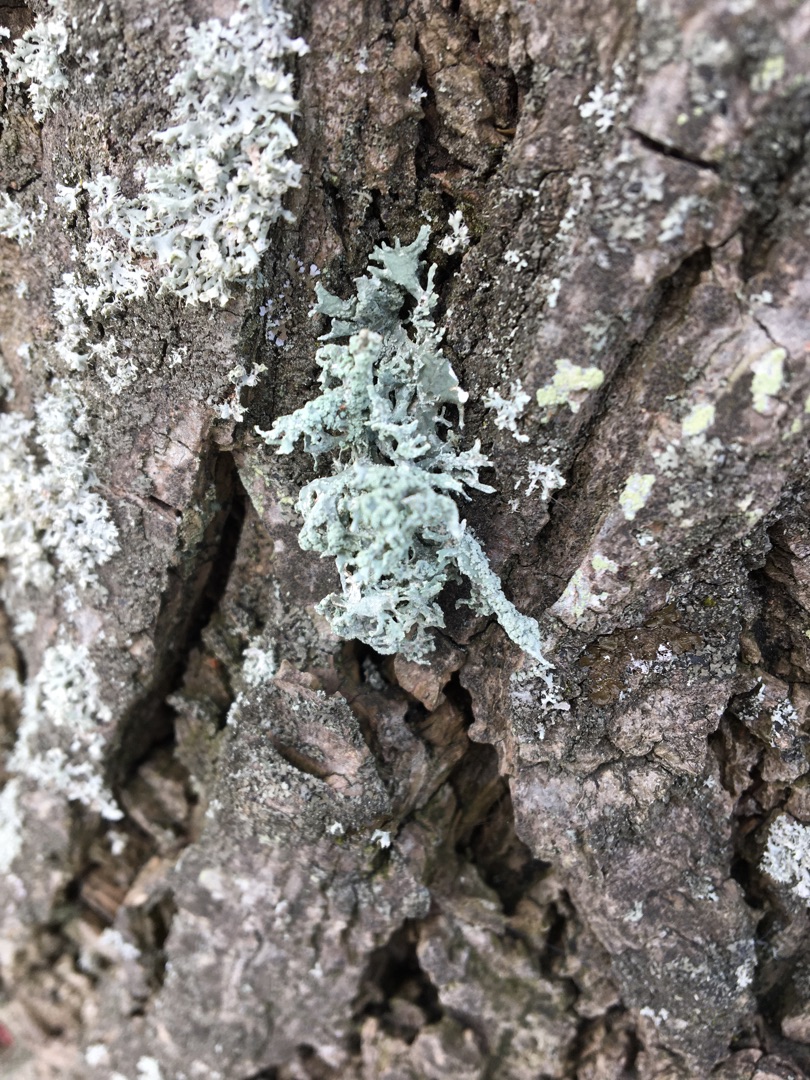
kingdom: Fungi
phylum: Ascomycota
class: Lecanoromycetes
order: Lecanorales
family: Parmeliaceae
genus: Evernia
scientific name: Evernia prunastri
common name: Almindelig slåenlav
